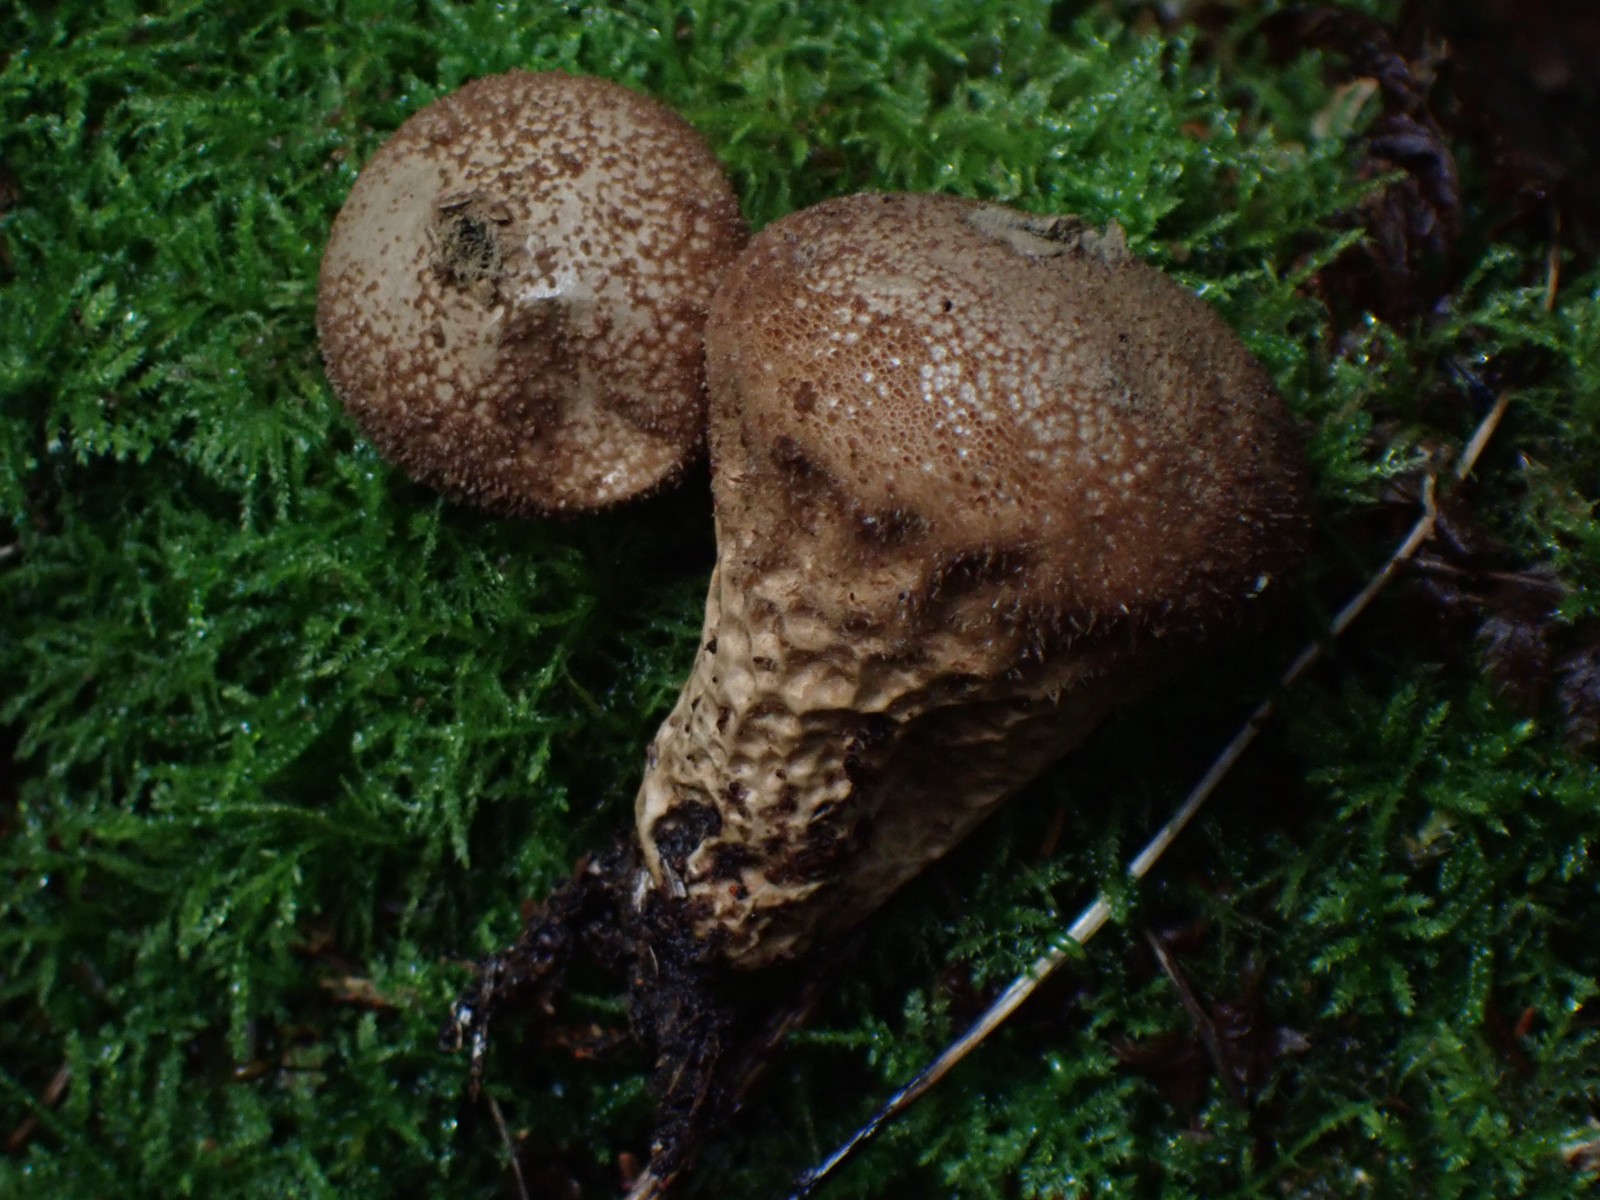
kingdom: Fungi
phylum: Basidiomycota
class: Agaricomycetes
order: Agaricales
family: Lycoperdaceae
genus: Lycoperdon
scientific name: Lycoperdon nigrescens
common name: sortagtig støvbold
